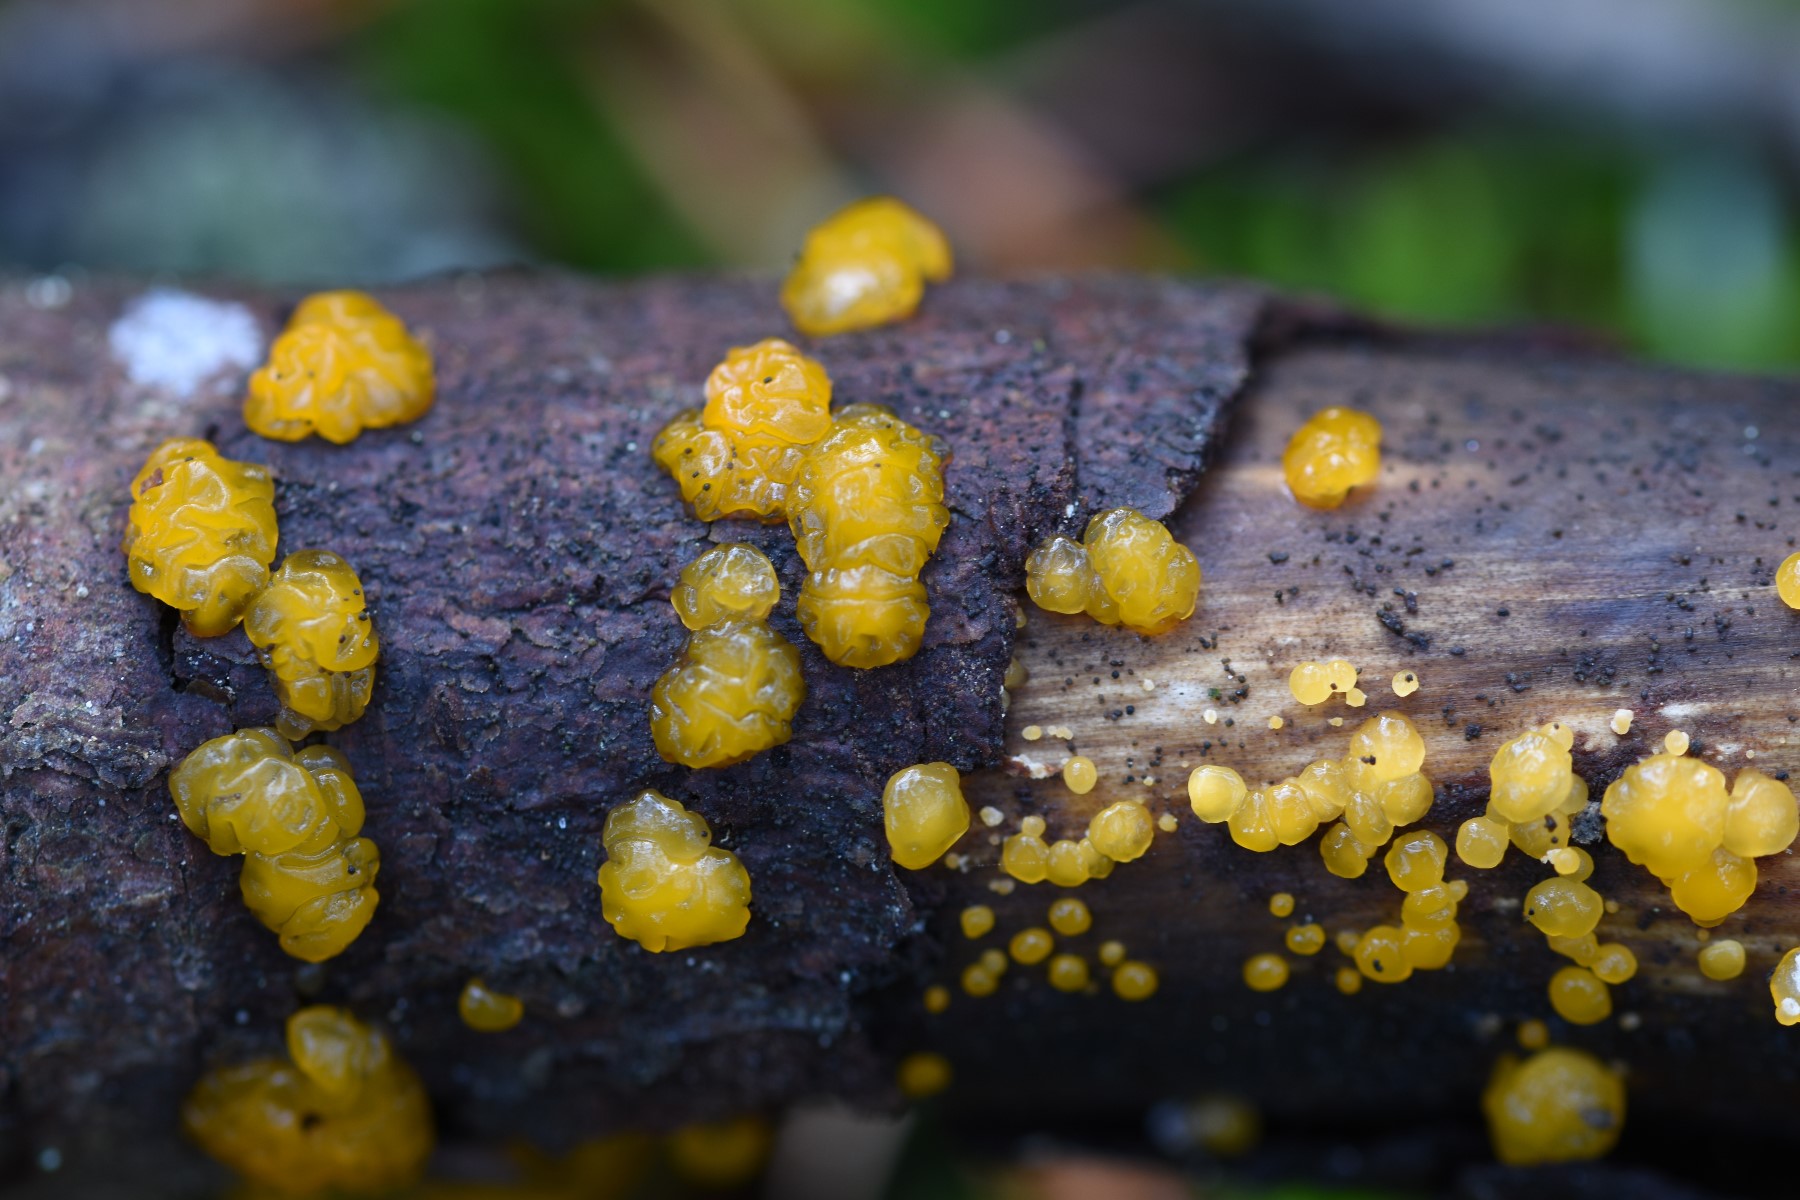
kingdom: Fungi
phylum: Basidiomycota
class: Dacrymycetes
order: Dacrymycetales
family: Dacrymycetaceae
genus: Dacrymyces
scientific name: Dacrymyces lacrymalis
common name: rynket tåresvamp
